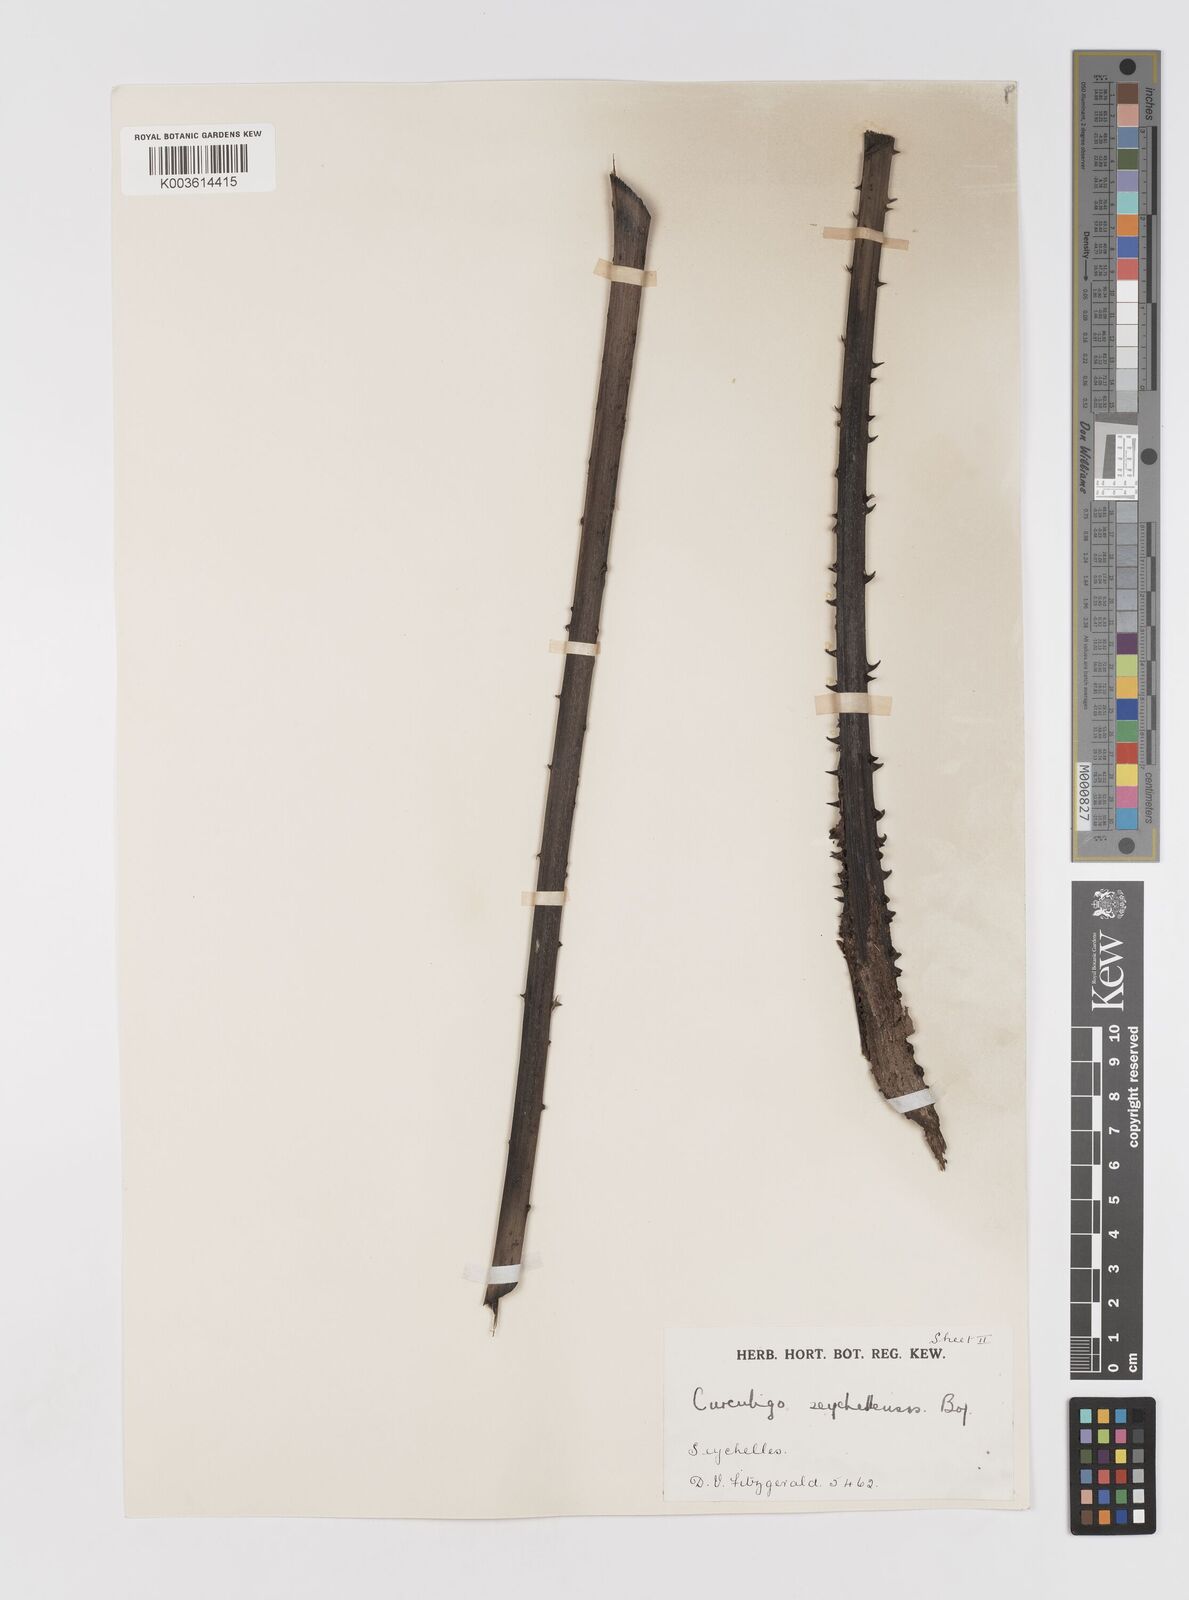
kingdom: Plantae
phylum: Tracheophyta
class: Liliopsida
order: Asparagales
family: Hypoxidaceae
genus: Curculigo
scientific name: Curculigo seychellensis
